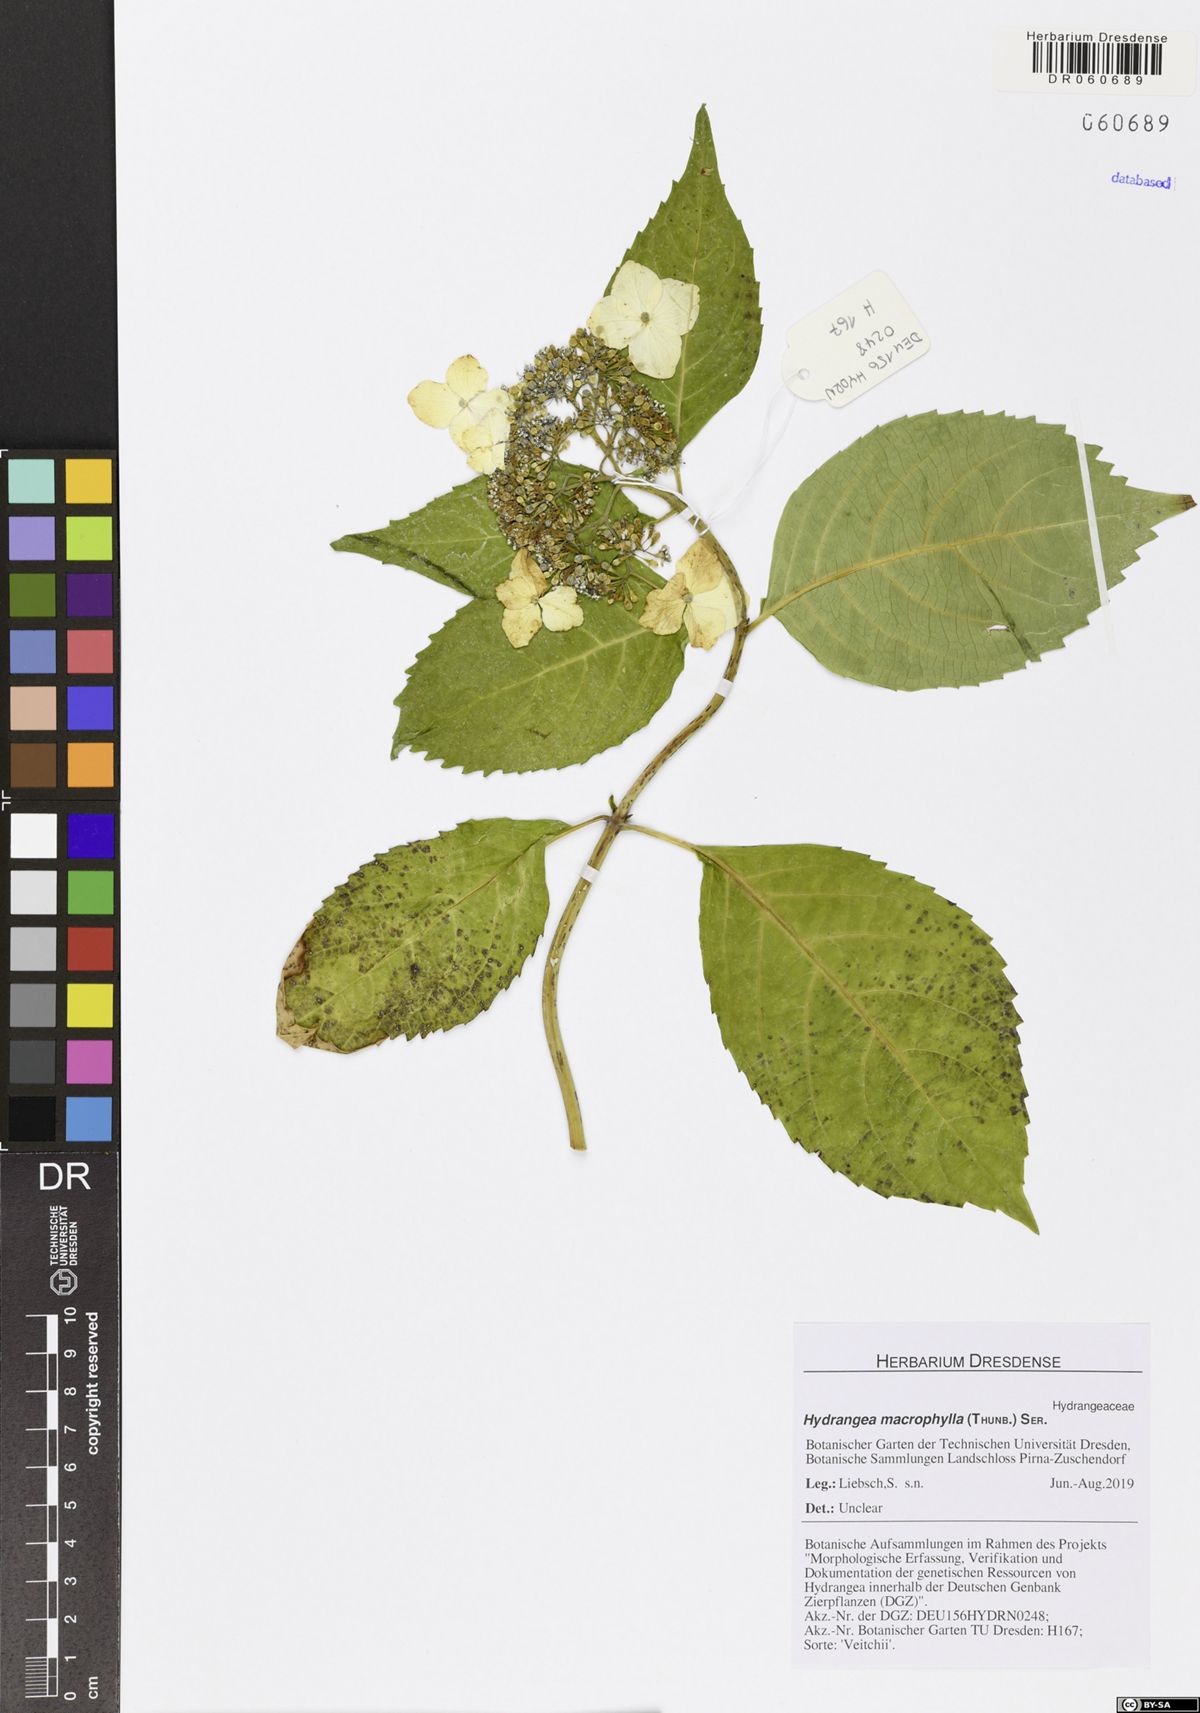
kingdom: Plantae
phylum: Tracheophyta
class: Magnoliopsida
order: Cornales
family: Hydrangeaceae
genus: Hydrangea
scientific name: Hydrangea macrophylla
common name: Hydrangea
